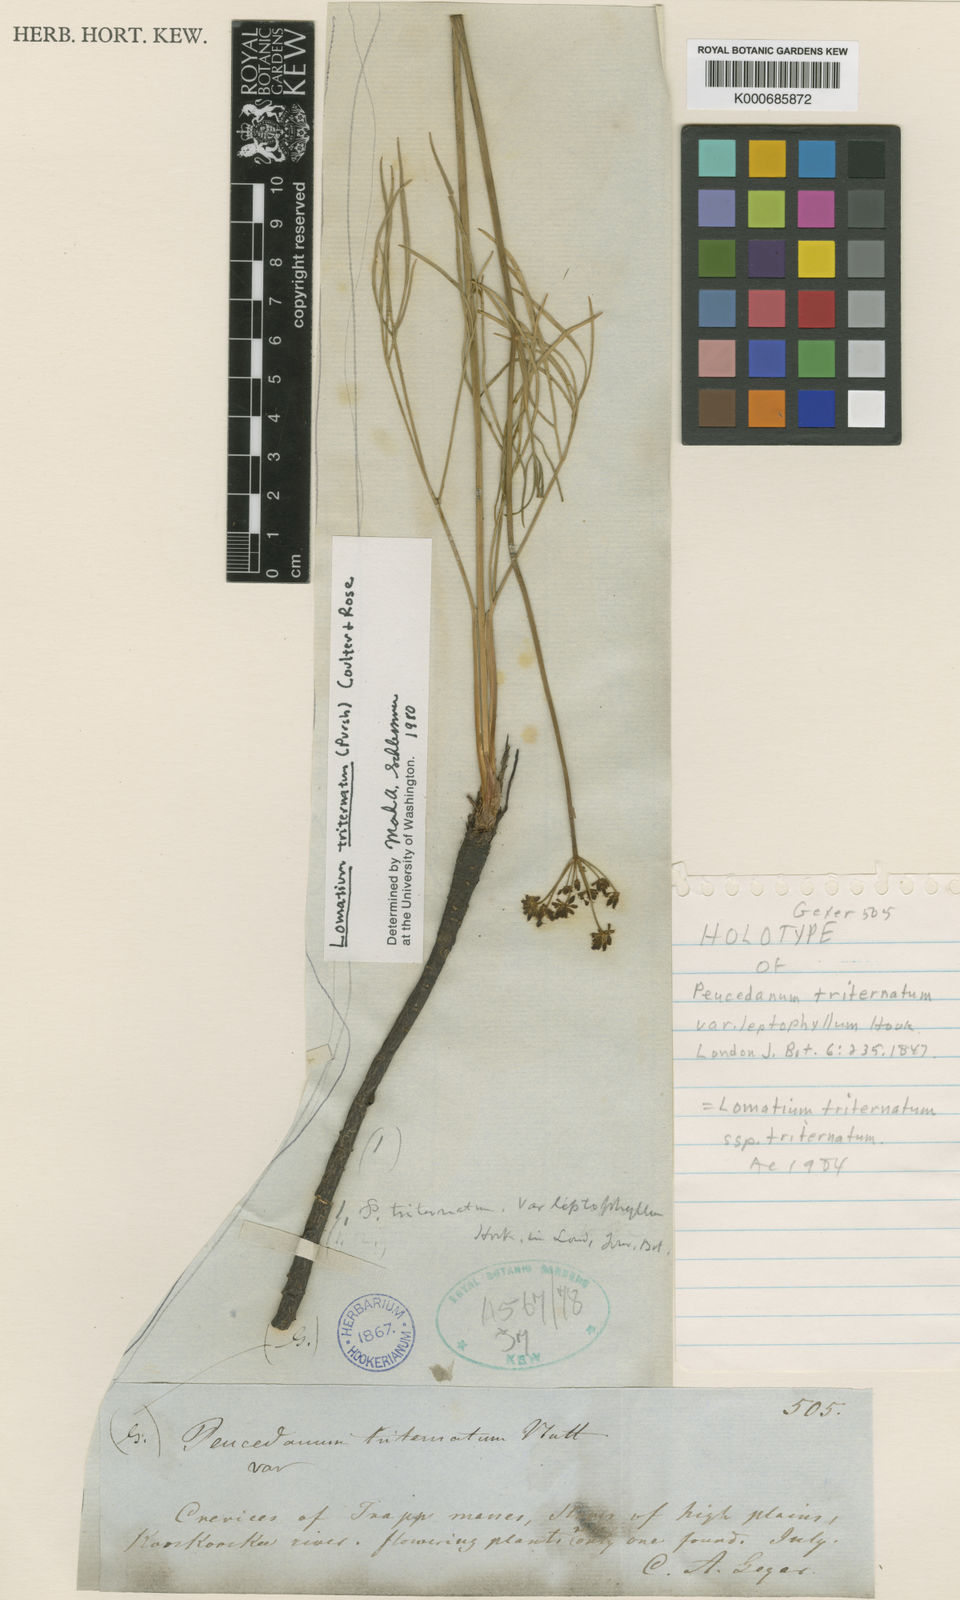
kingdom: Plantae
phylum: Tracheophyta
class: Magnoliopsida
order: Apiales
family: Apiaceae
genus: Lomatium
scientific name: Lomatium triternatum
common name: Ternate lomatium
